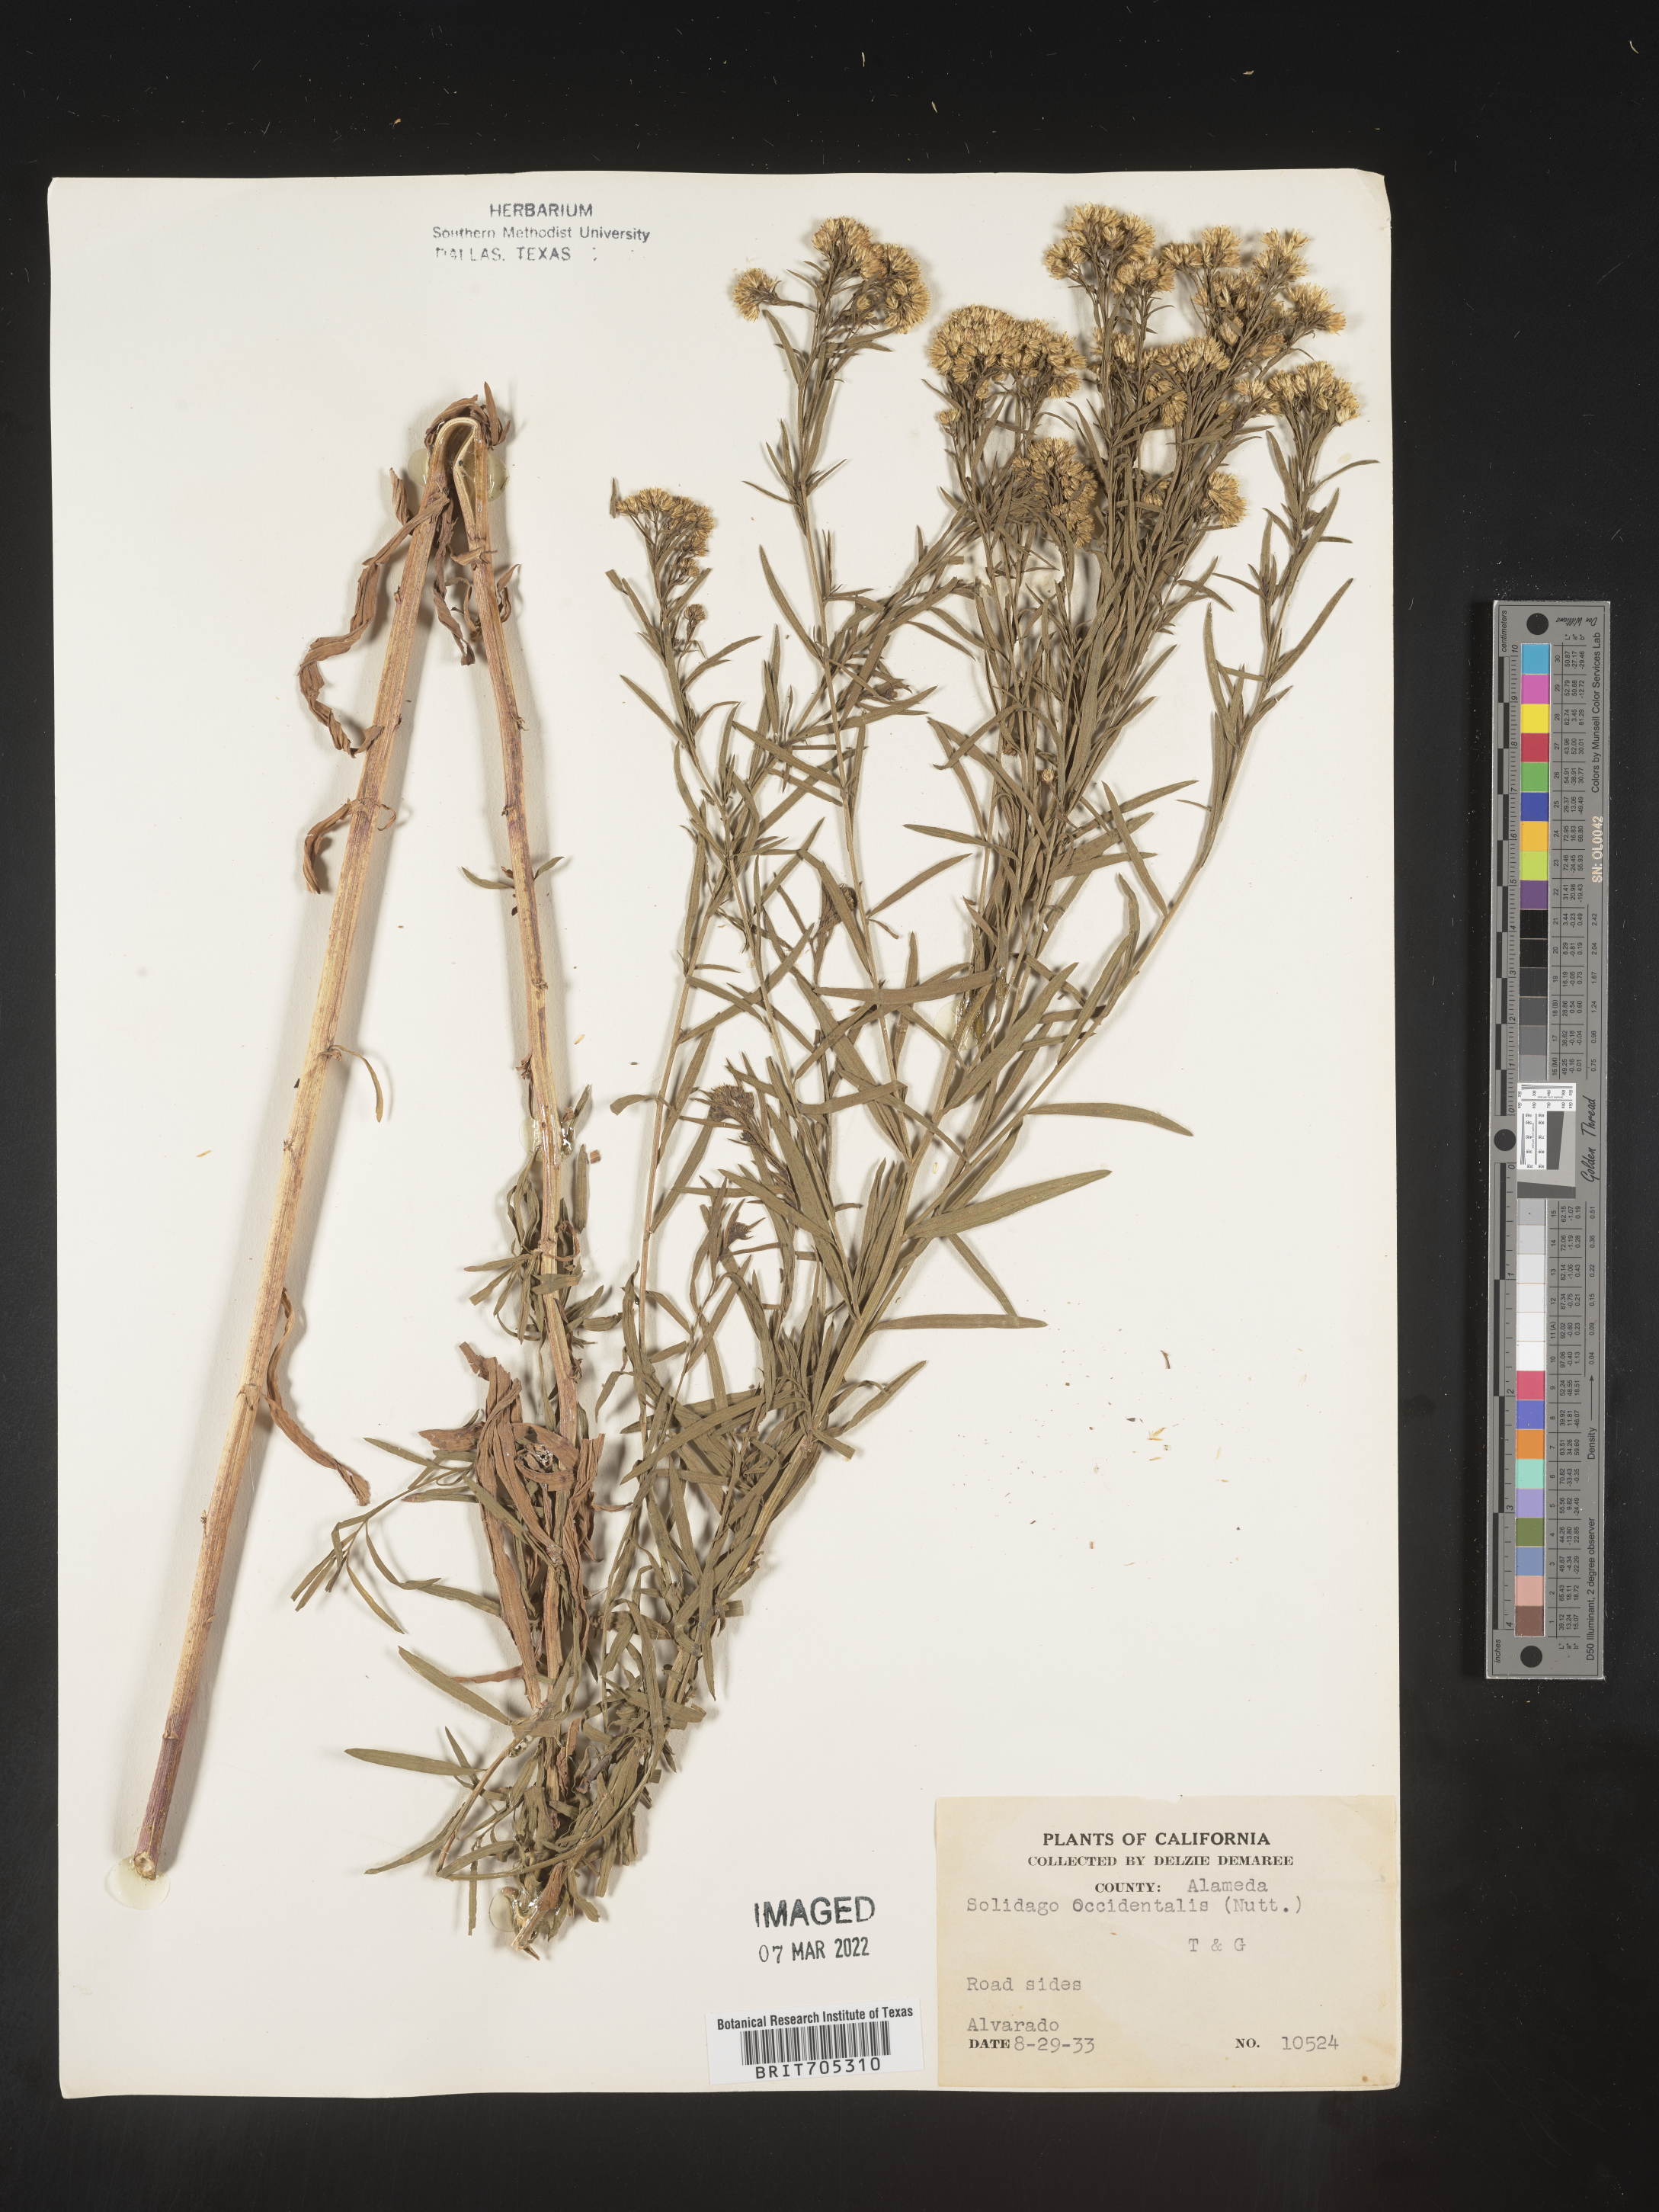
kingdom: Plantae
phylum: Tracheophyta
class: Magnoliopsida
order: Asterales
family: Asteraceae
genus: Euthamia
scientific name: Euthamia occidentalis
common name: Western goldentop
